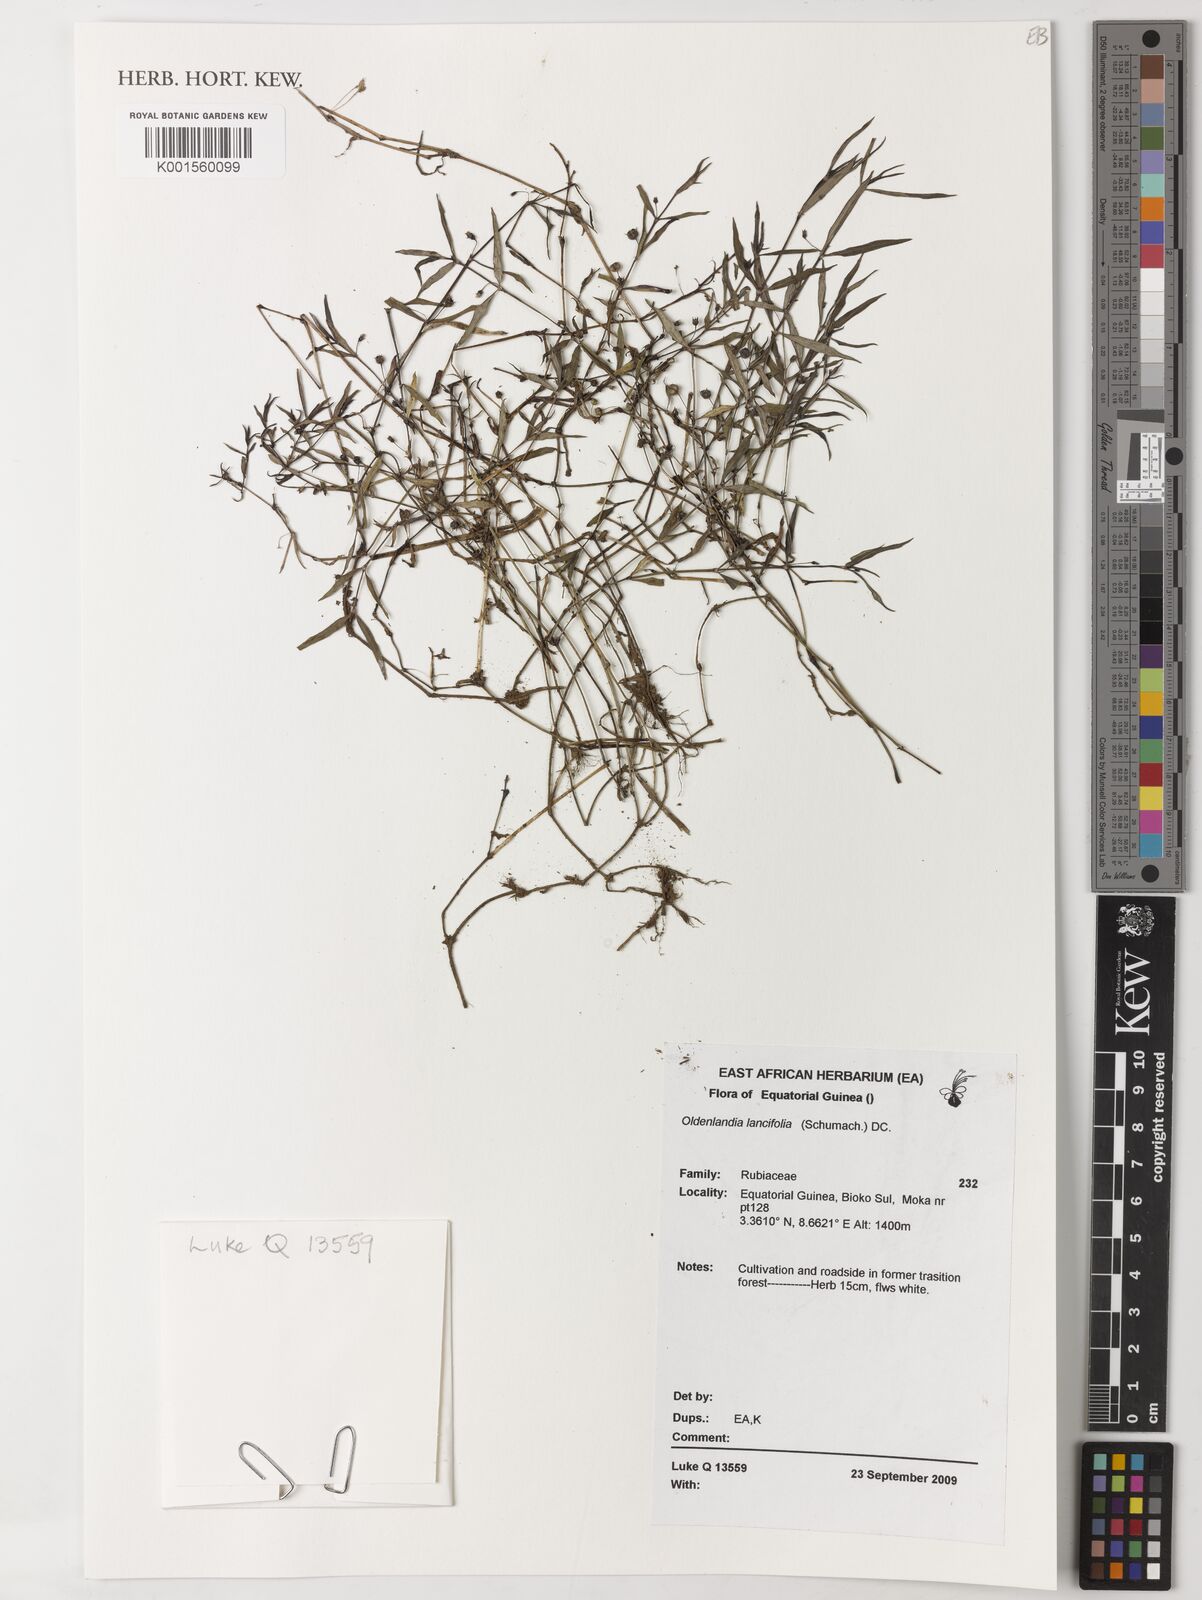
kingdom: Plantae
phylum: Tracheophyta
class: Magnoliopsida
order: Gentianales
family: Rubiaceae
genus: Oldenlandia
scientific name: Oldenlandia lancifolia
